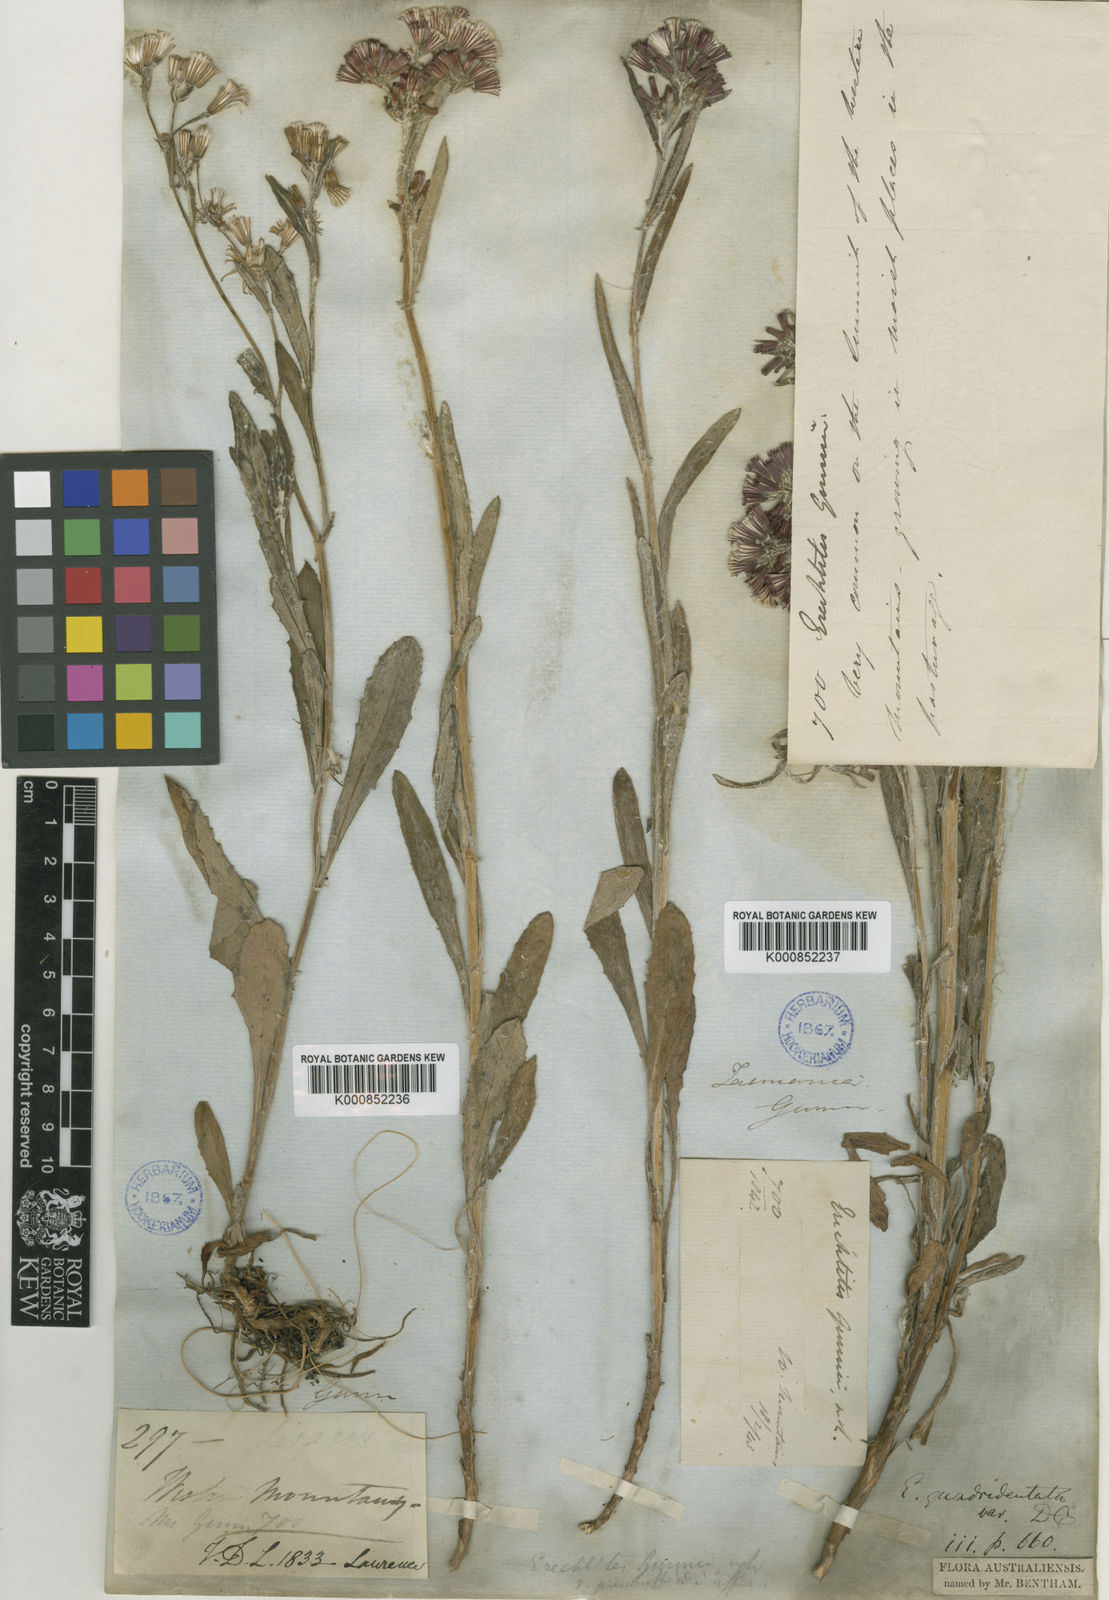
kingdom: Plantae
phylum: Tracheophyta
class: Magnoliopsida
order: Asterales
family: Asteraceae
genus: Senecio
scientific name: Senecio gunnii
